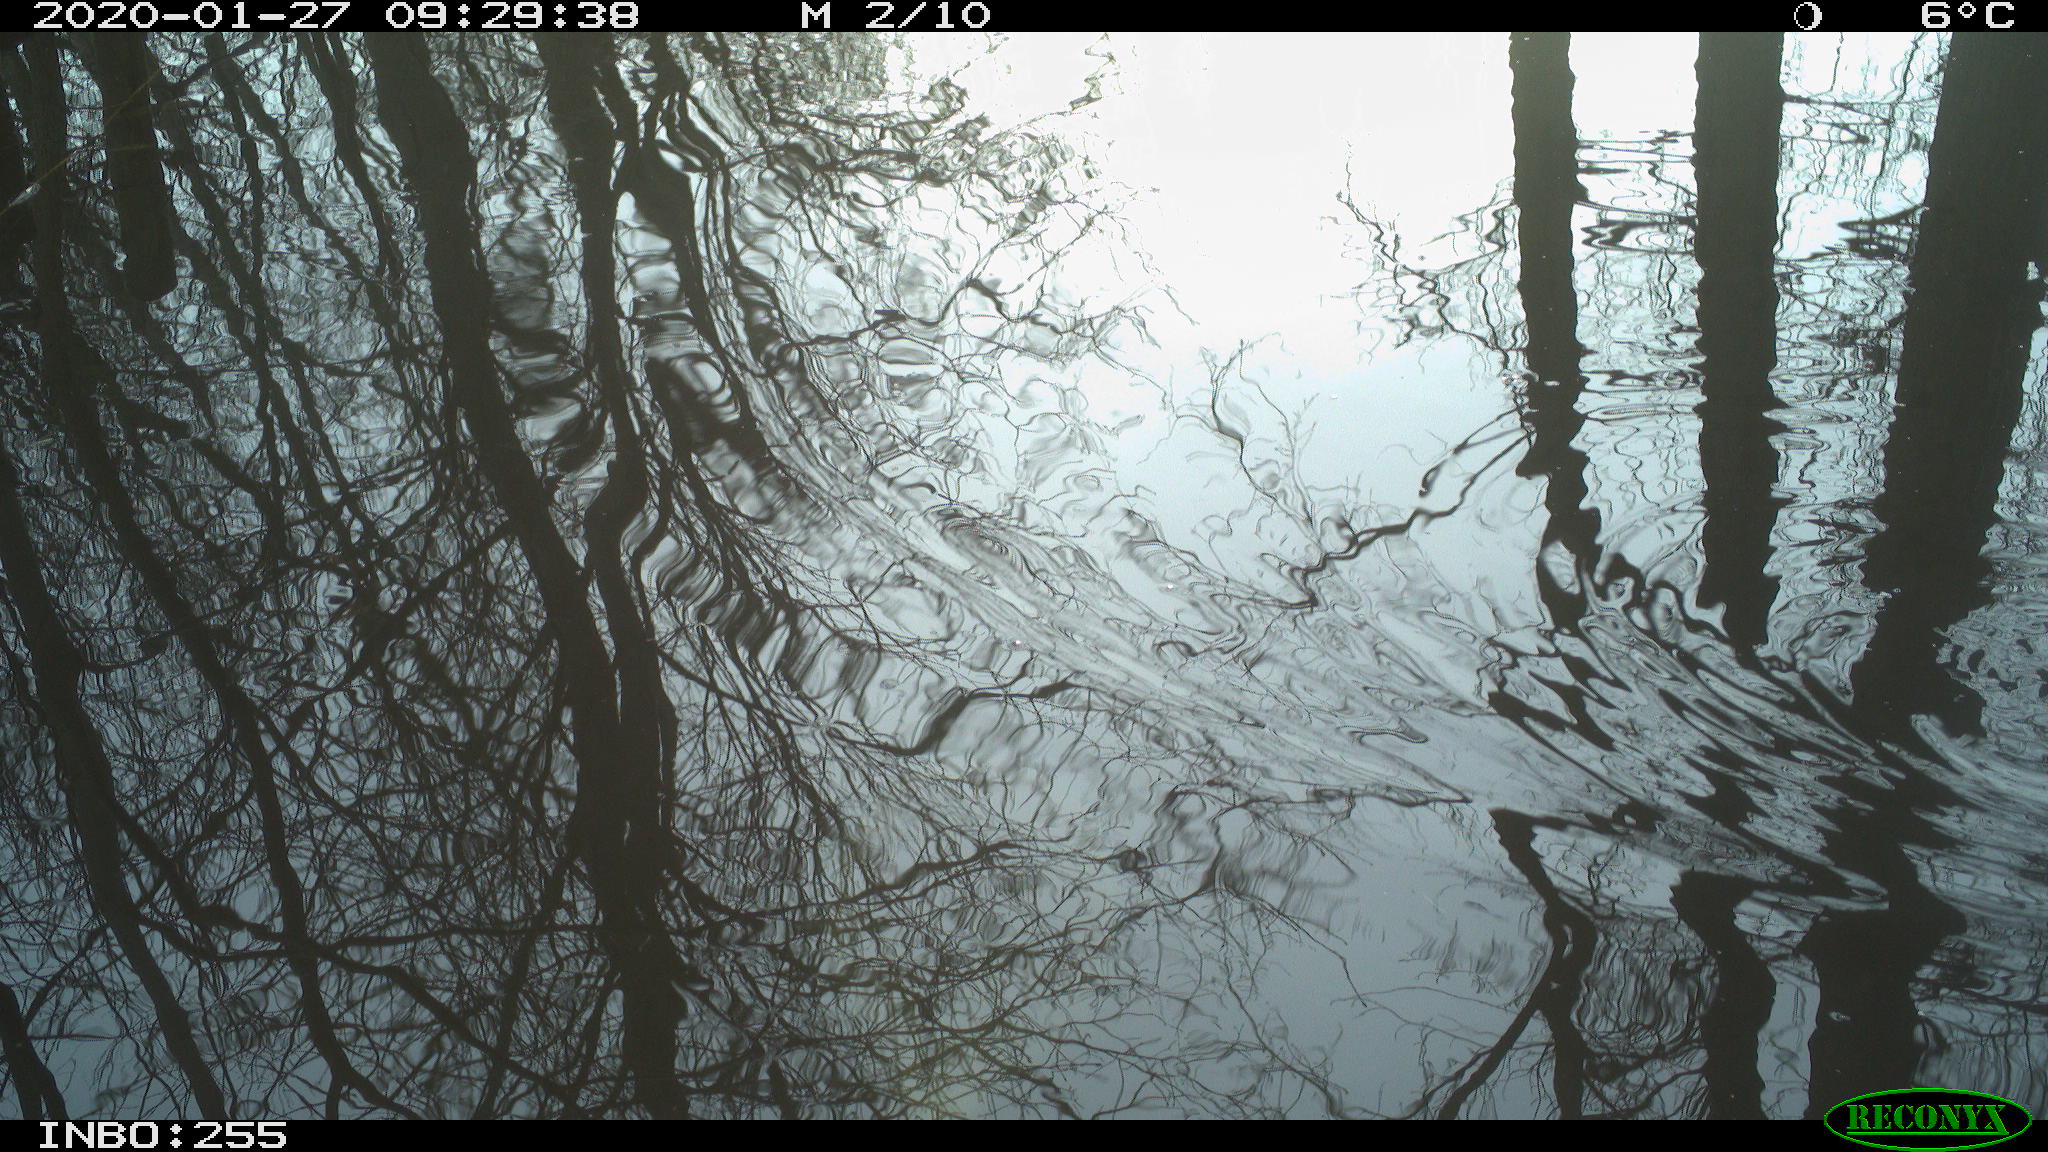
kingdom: Animalia
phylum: Chordata
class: Aves
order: Gruiformes
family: Rallidae
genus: Gallinula
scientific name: Gallinula chloropus
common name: Common moorhen
